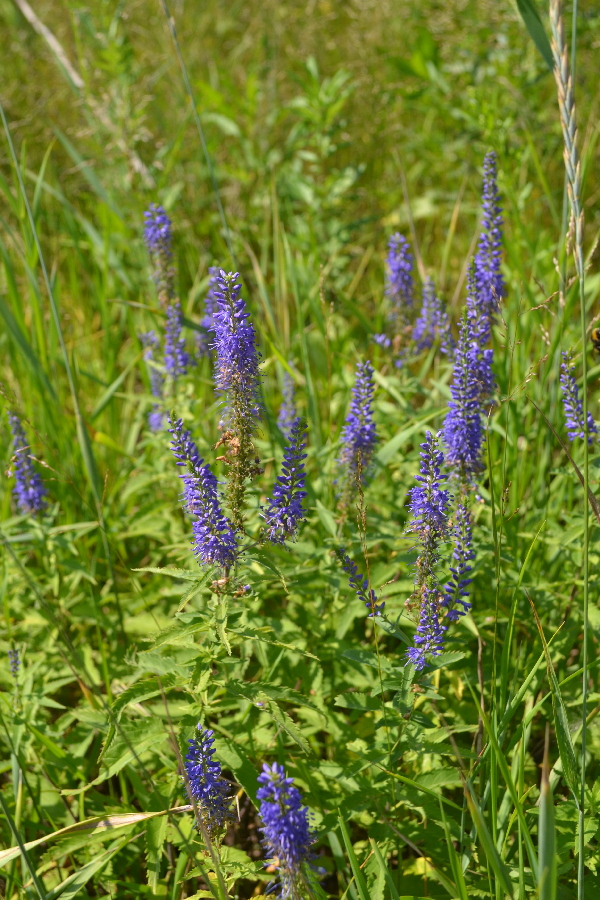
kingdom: Plantae
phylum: Tracheophyta
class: Magnoliopsida
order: Lamiales
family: Plantaginaceae
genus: Veronica
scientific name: Veronica longifolia
